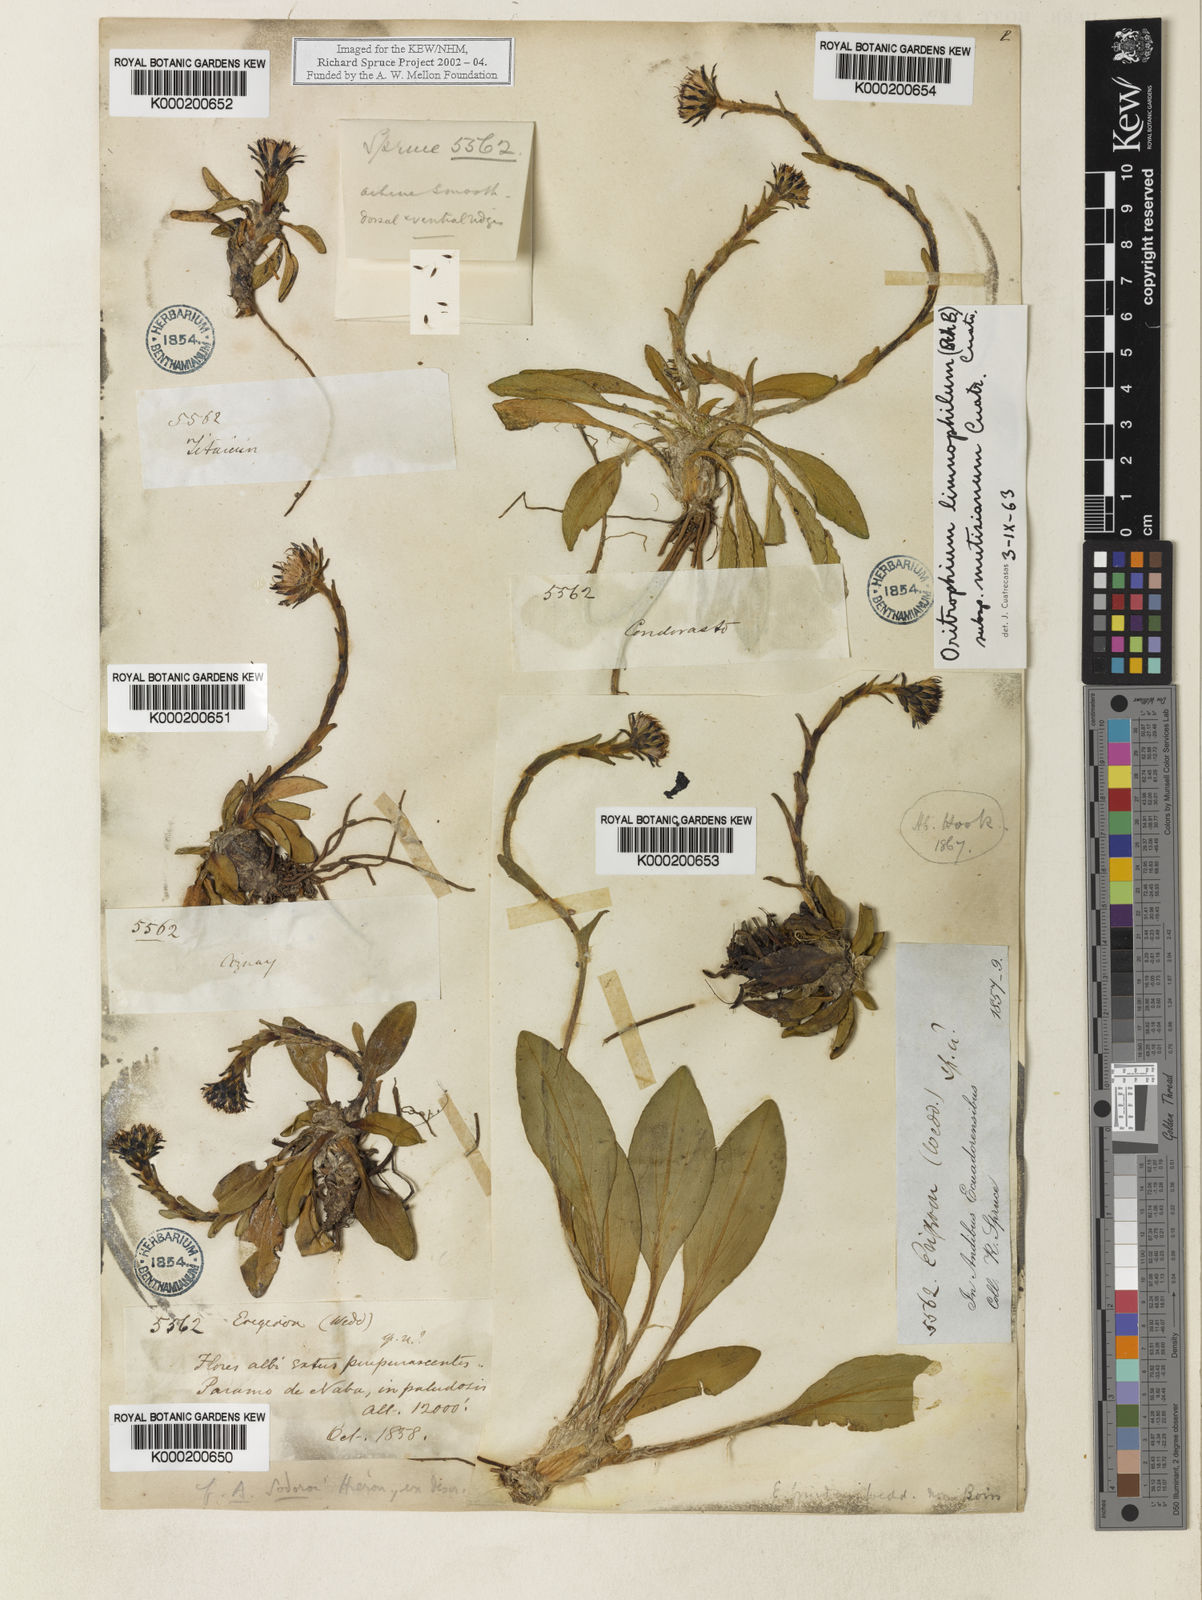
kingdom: Plantae
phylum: Tracheophyta
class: Magnoliopsida
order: Asterales
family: Asteraceae
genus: Oritrophium
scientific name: Oritrophium limnophilum
